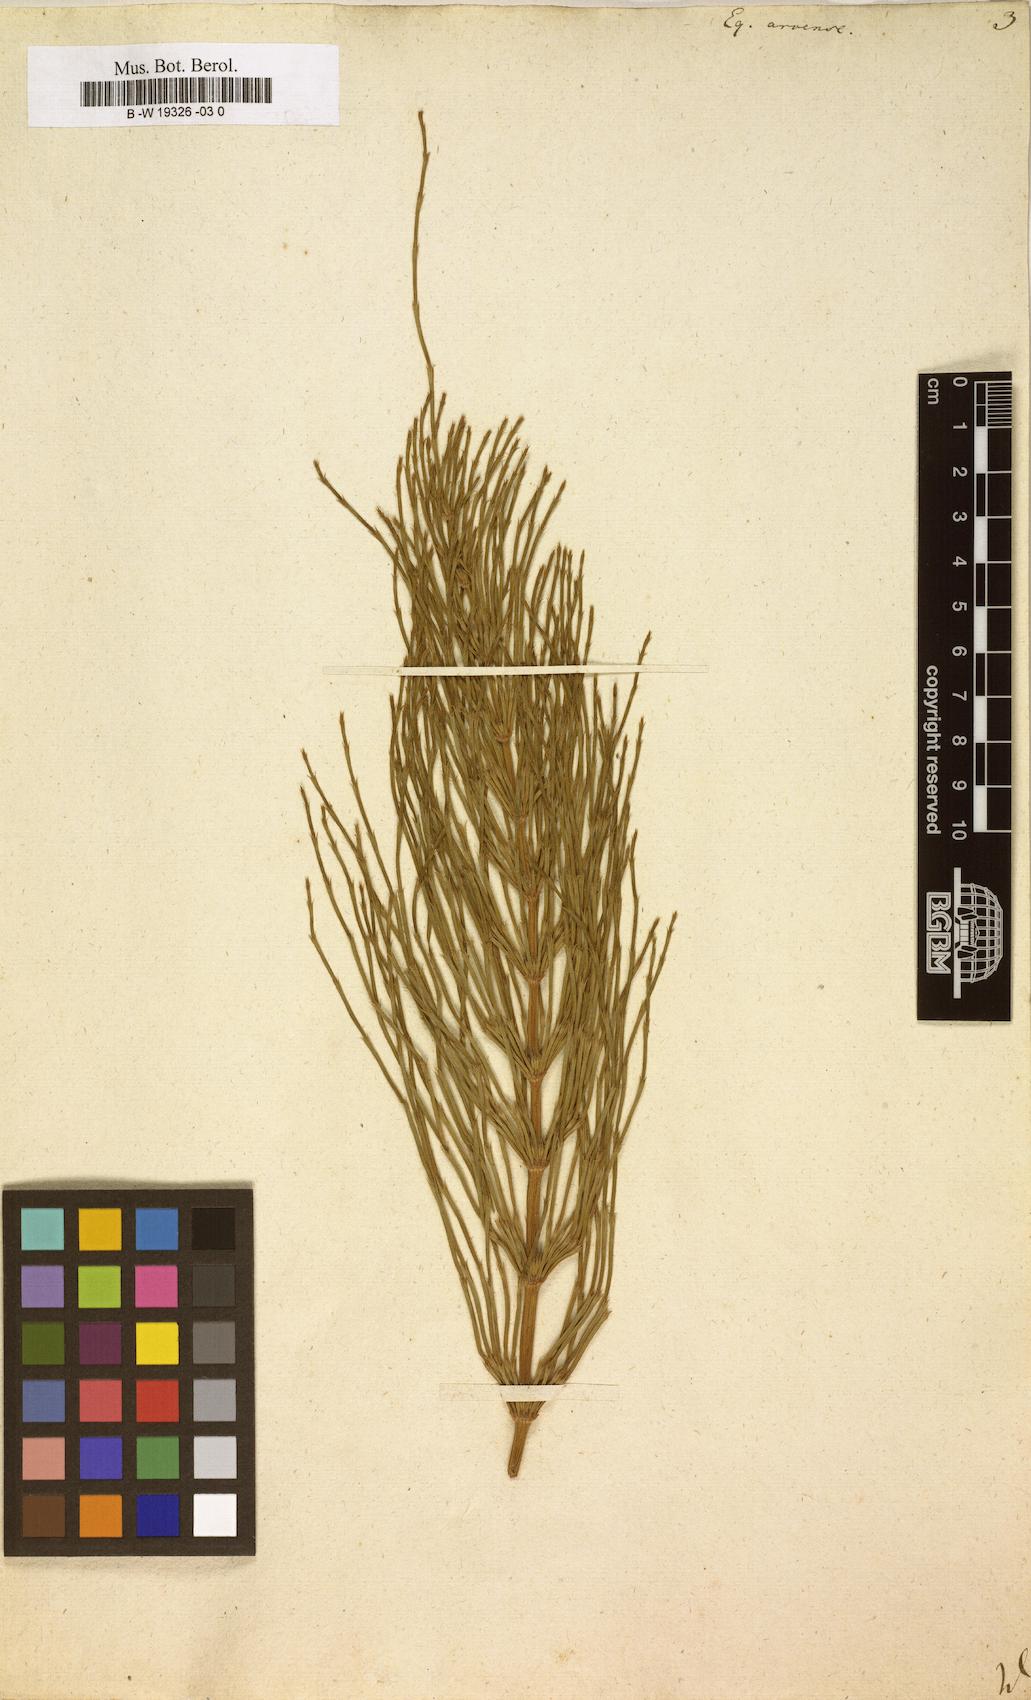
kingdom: Plantae
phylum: Tracheophyta
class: Polypodiopsida
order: Equisetales
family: Equisetaceae
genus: Equisetum
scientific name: Equisetum arvense
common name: Field horsetail
